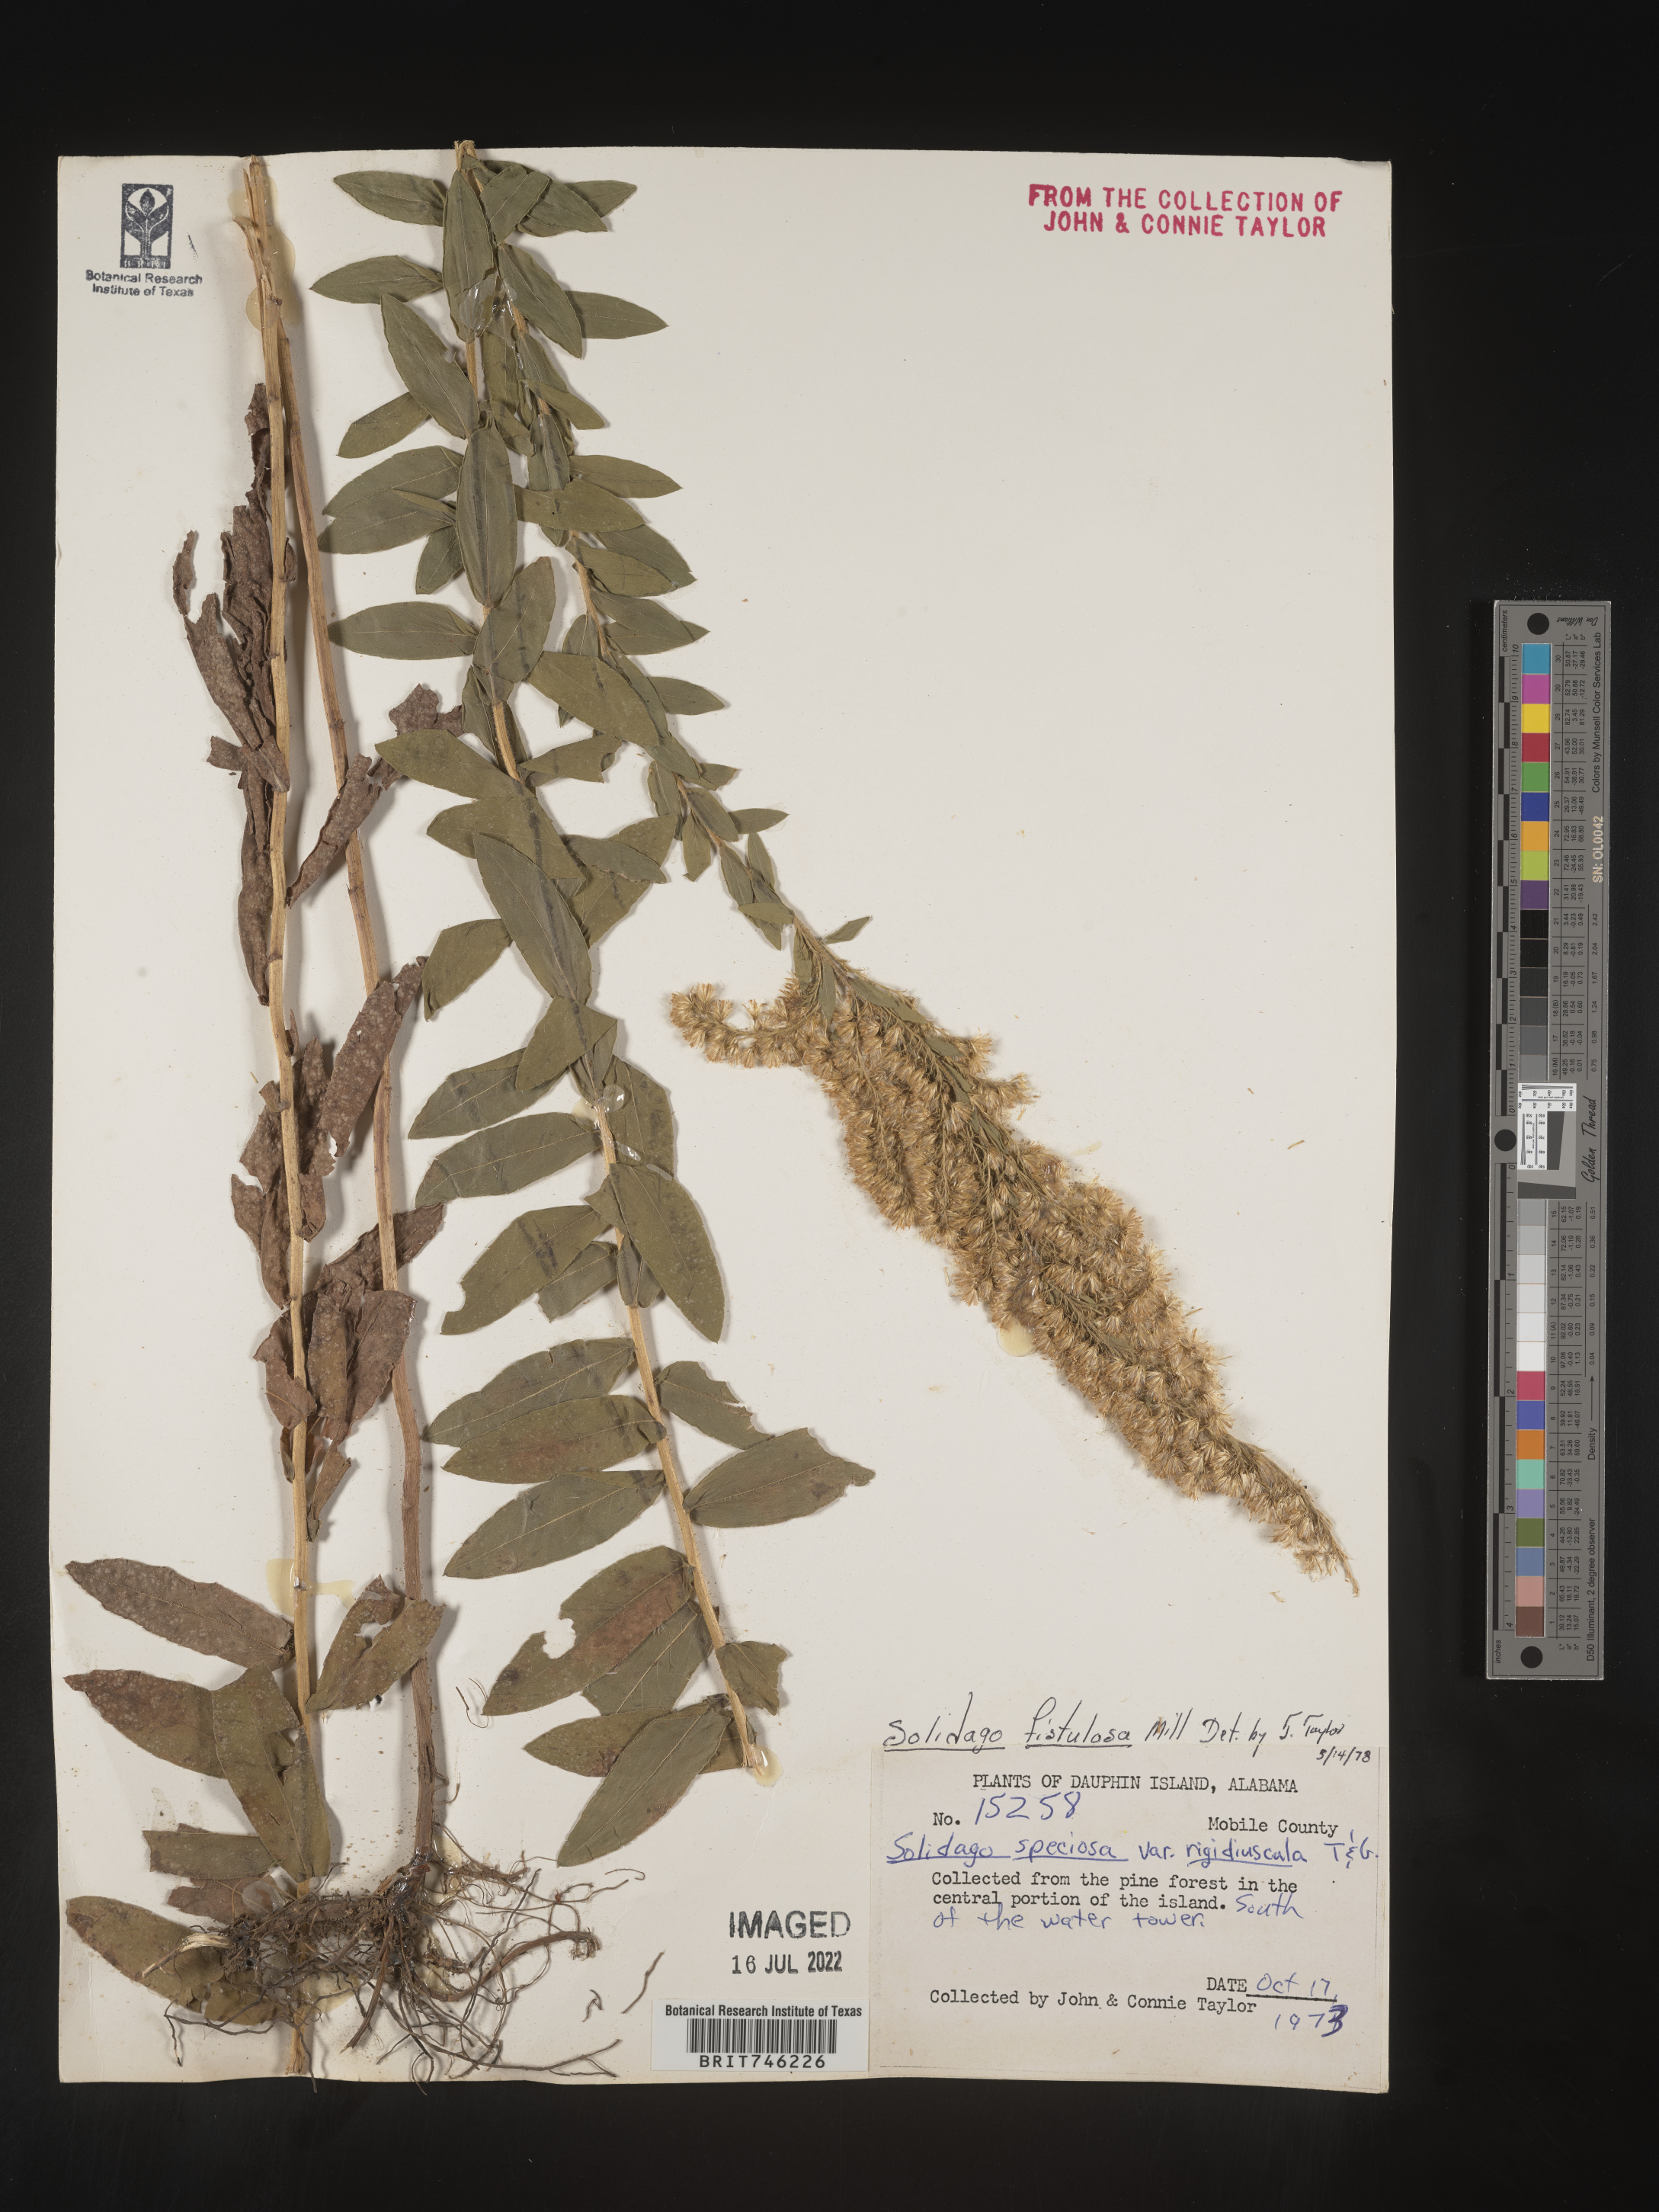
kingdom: Plantae
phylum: Tracheophyta
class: Magnoliopsida
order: Asterales
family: Asteraceae
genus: Solidago
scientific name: Solidago fistulosa
